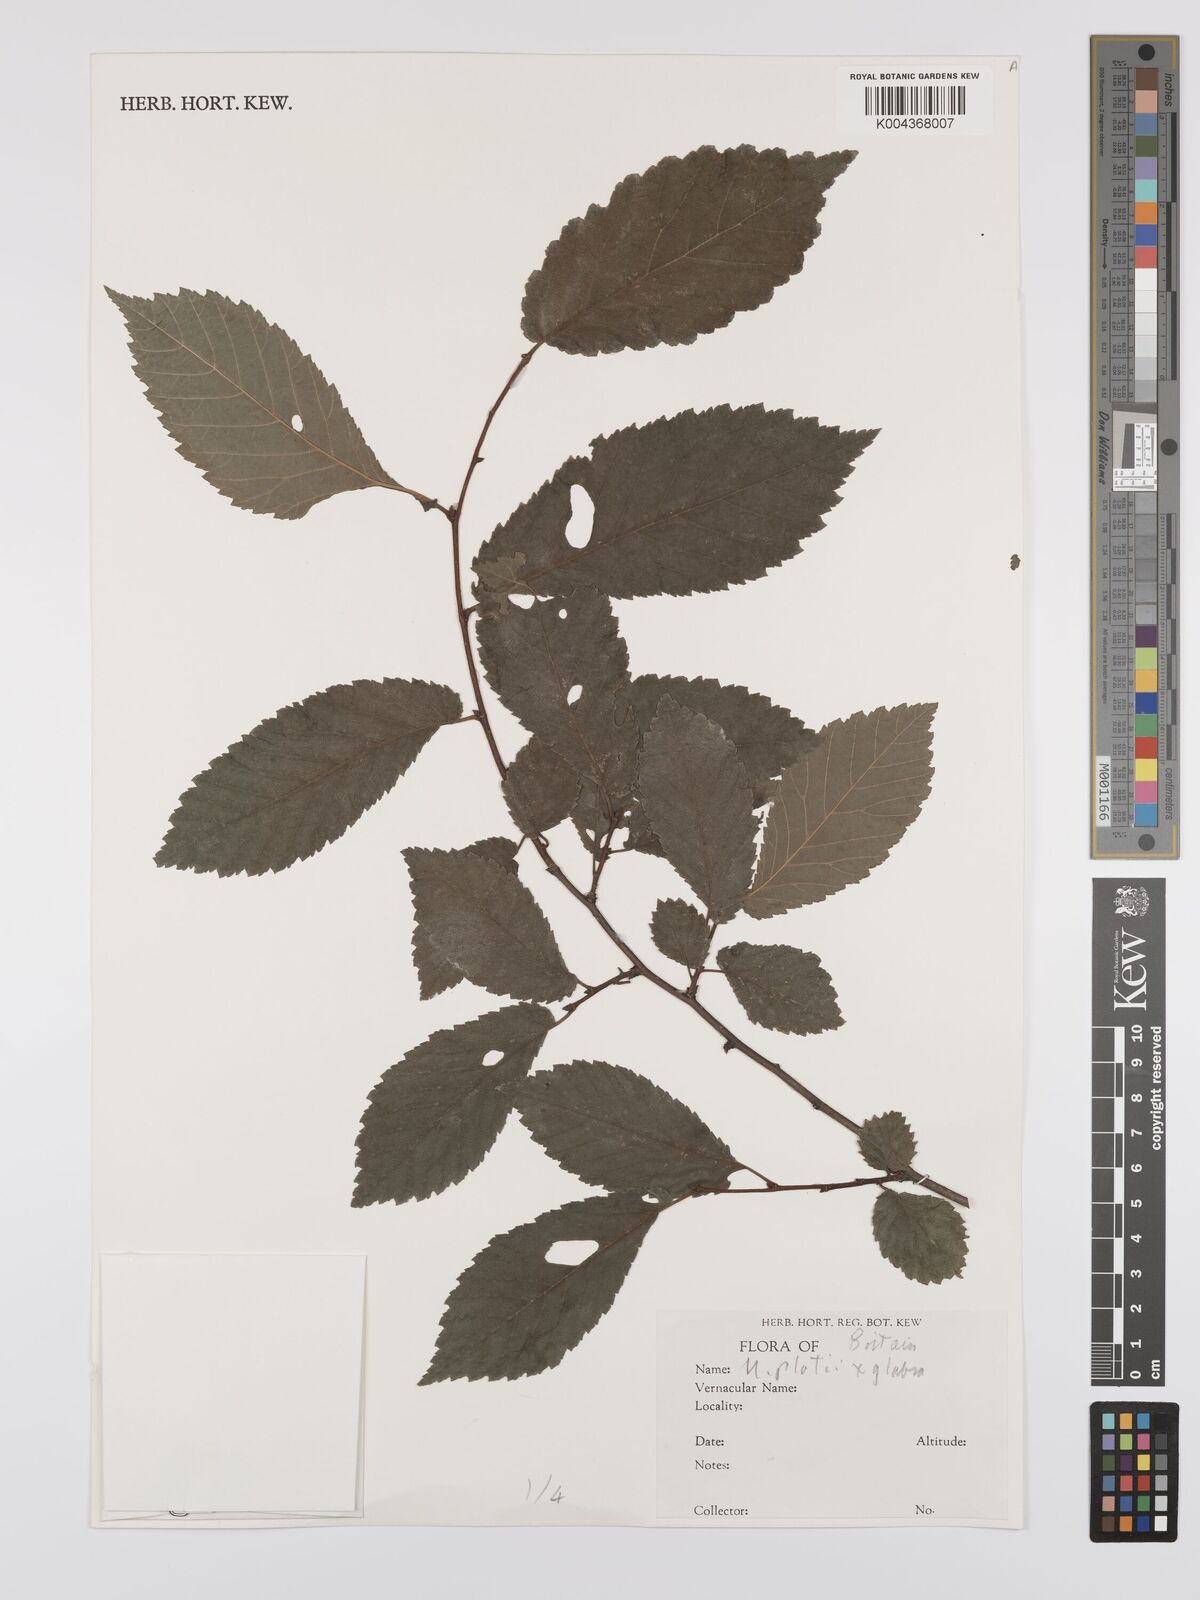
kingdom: Plantae
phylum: Tracheophyta
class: Magnoliopsida
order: Rosales
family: Ulmaceae
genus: Ulmus
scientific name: Ulmus
